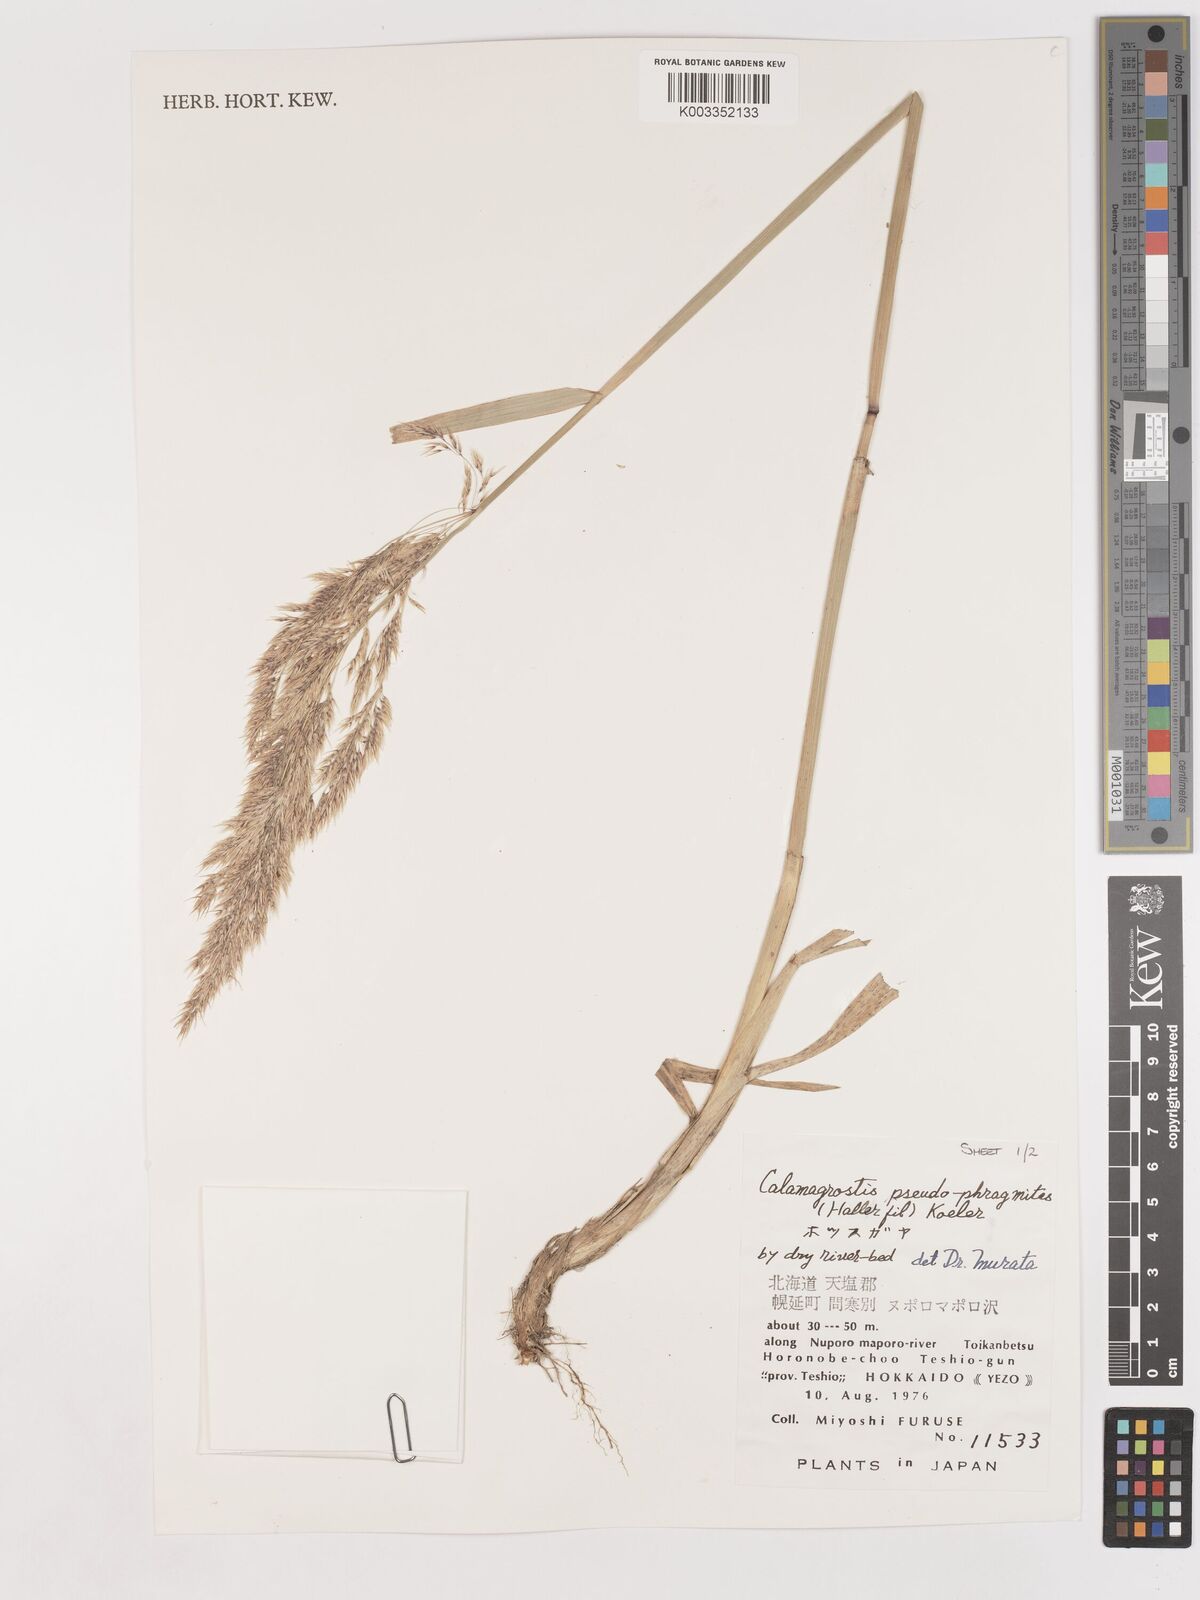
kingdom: Plantae
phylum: Tracheophyta
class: Liliopsida
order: Poales
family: Poaceae
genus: Calamagrostis
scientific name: Calamagrostis pseudophragmites
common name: Coastal small-reed
